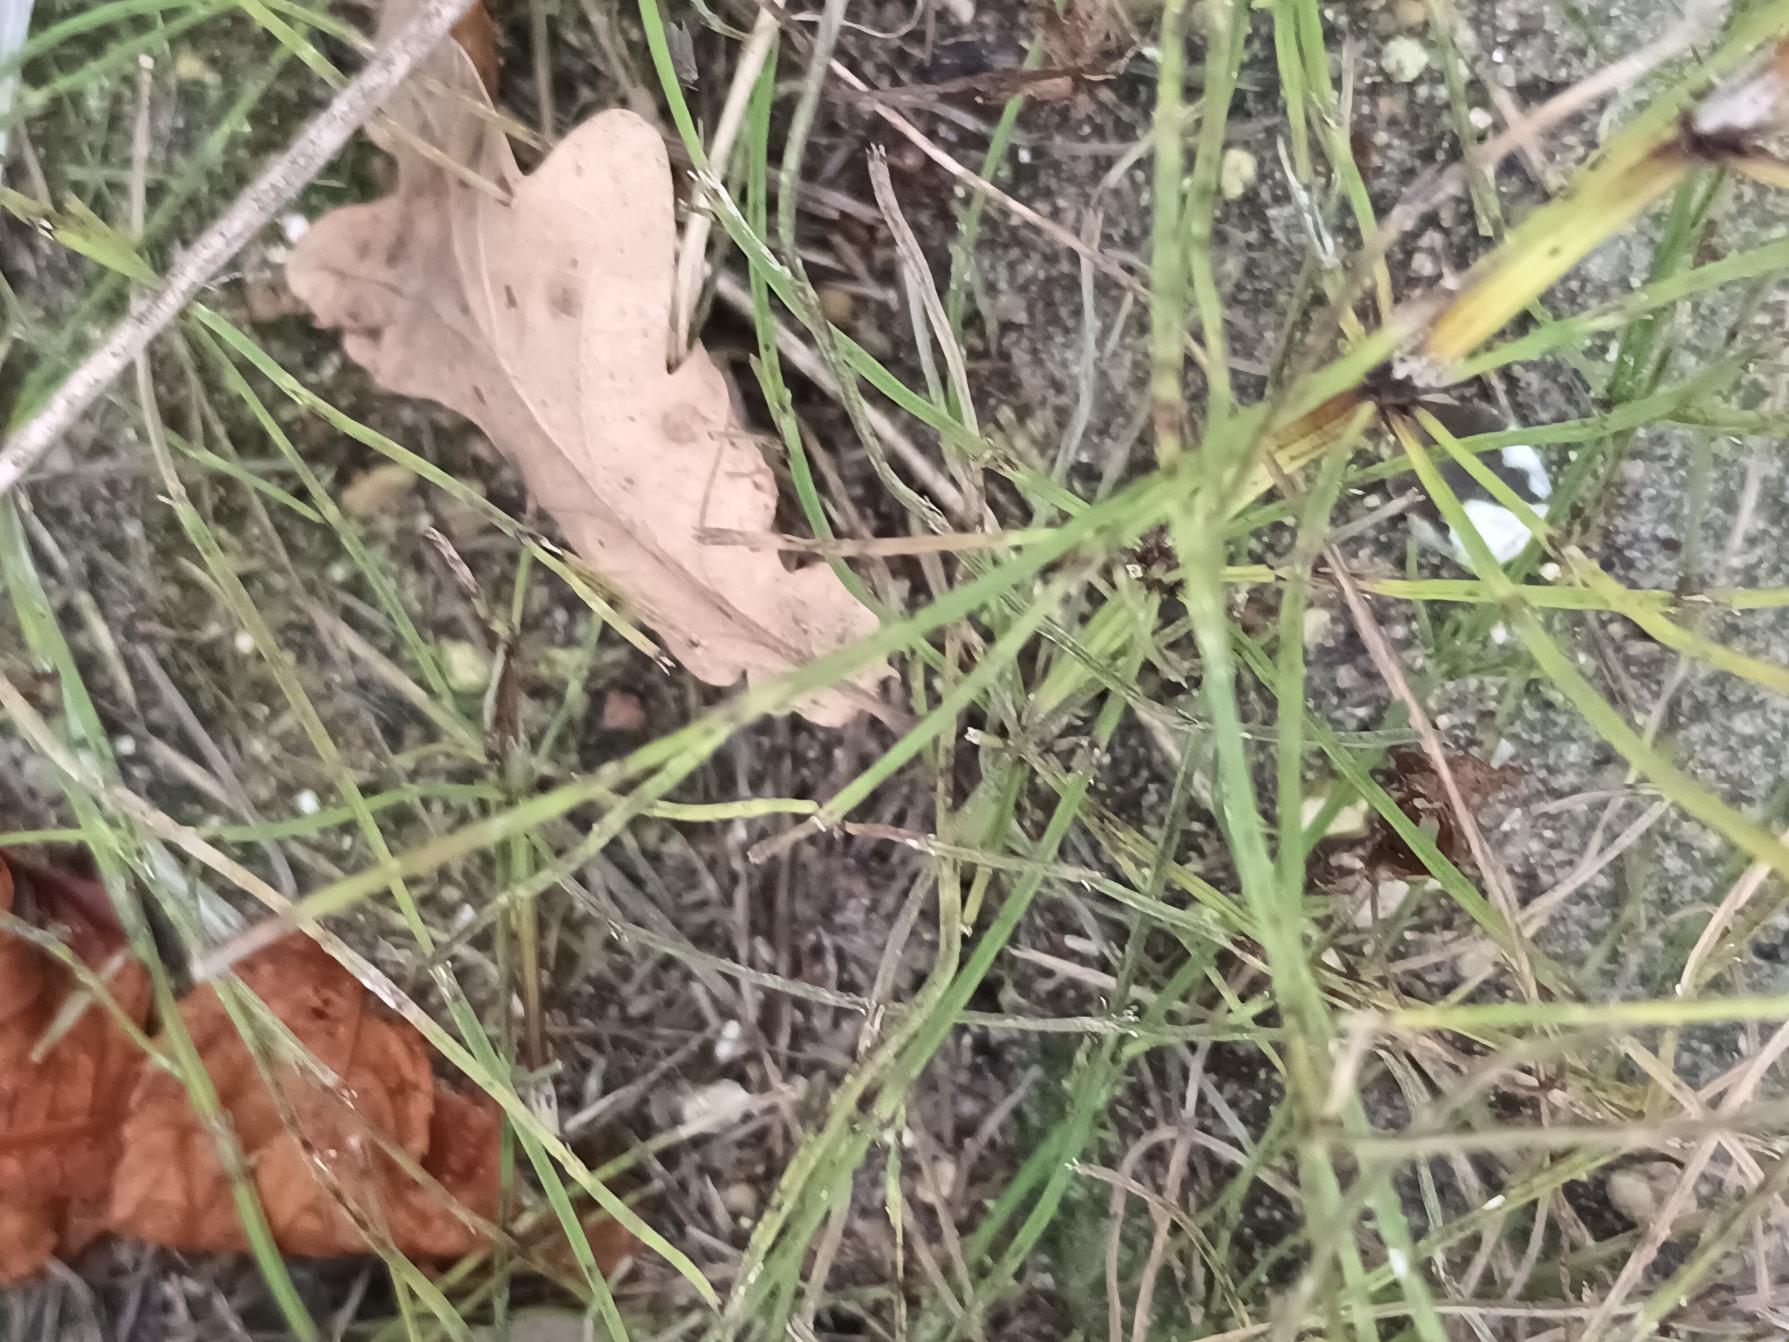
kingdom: Plantae
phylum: Tracheophyta
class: Polypodiopsida
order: Equisetales
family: Equisetaceae
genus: Equisetum
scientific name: Equisetum arvense
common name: Ager-padderok
